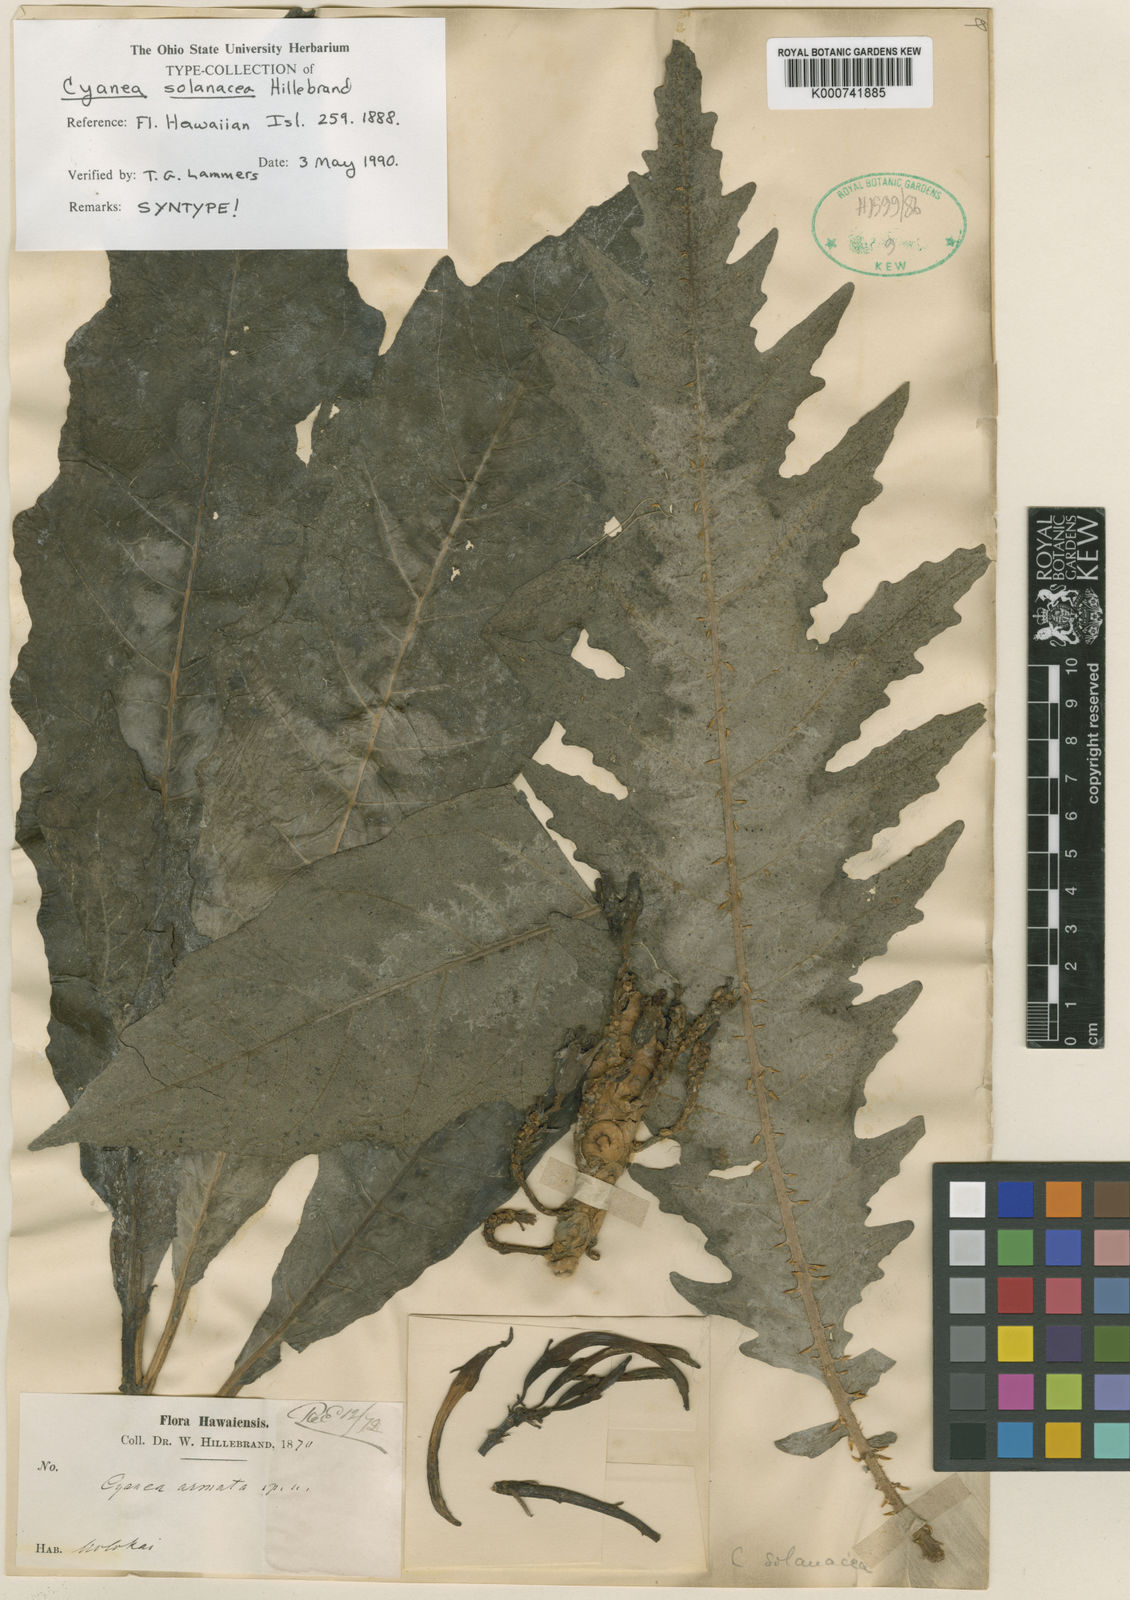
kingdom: Plantae
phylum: Tracheophyta
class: Magnoliopsida
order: Asterales
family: Campanulaceae
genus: Cyanea
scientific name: Cyanea solanacea
